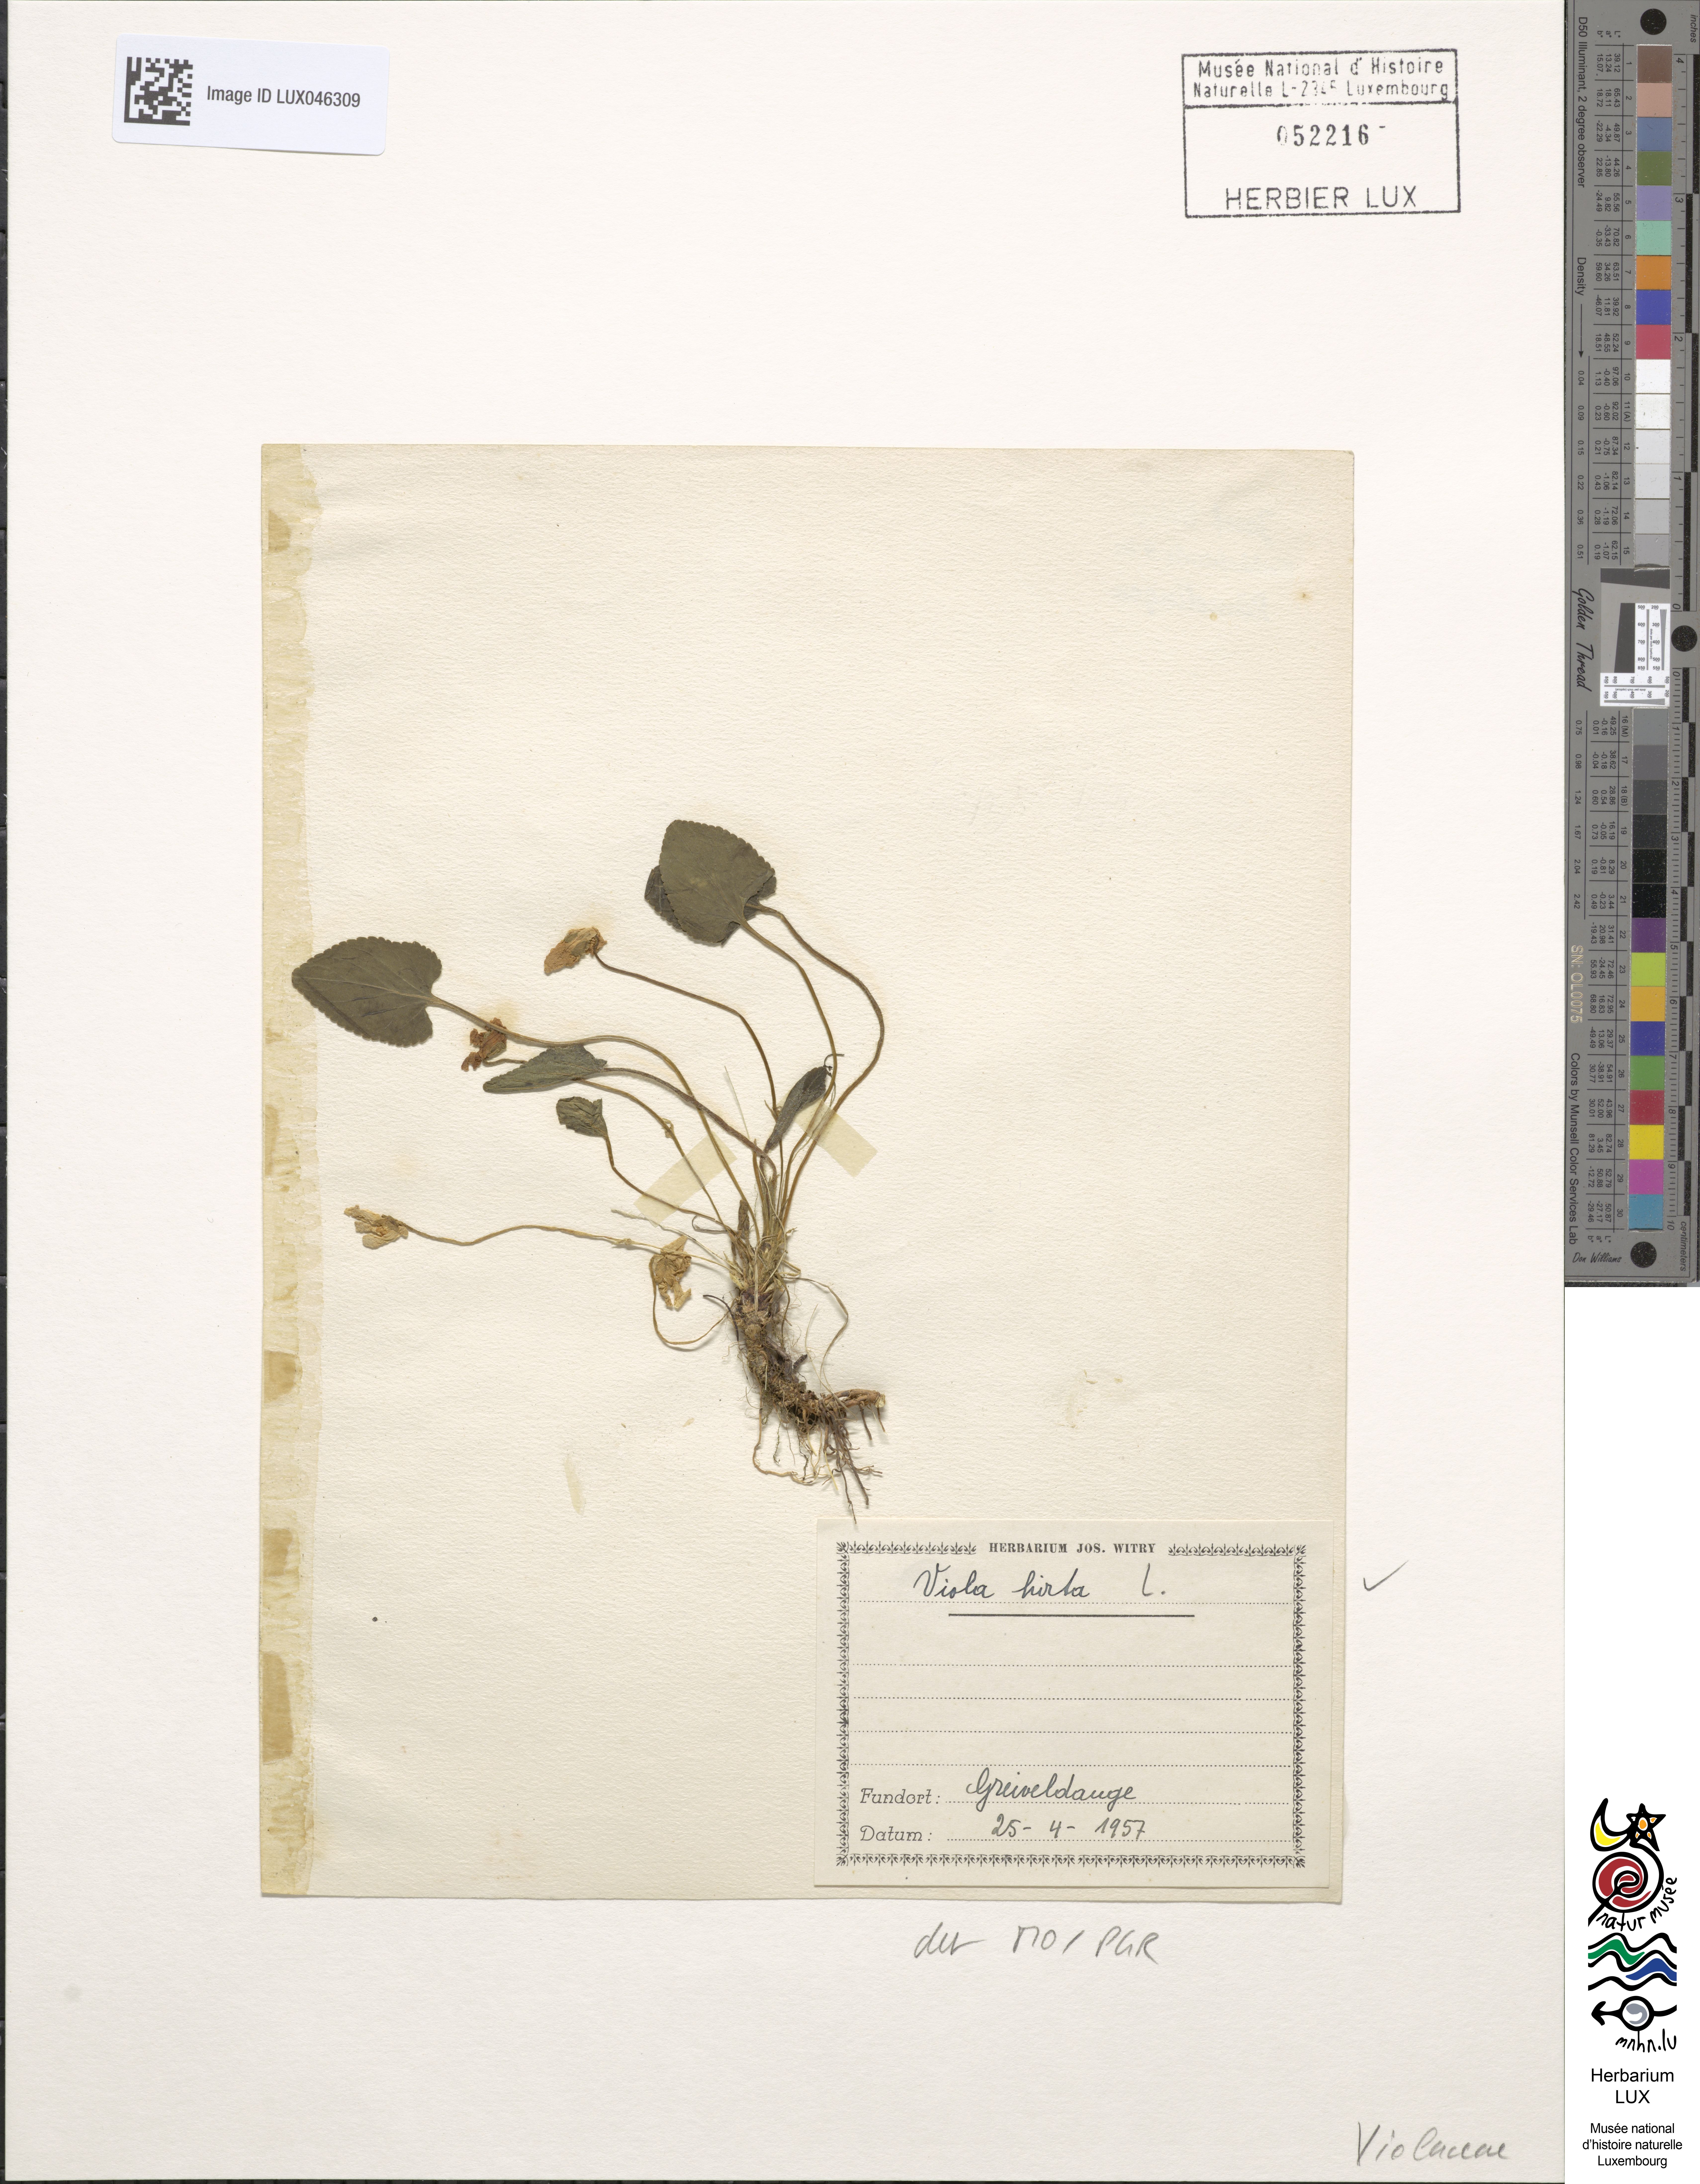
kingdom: Plantae
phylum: Tracheophyta
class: Magnoliopsida
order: Malpighiales
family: Violaceae
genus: Viola
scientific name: Viola hirta
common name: Hairy violet
